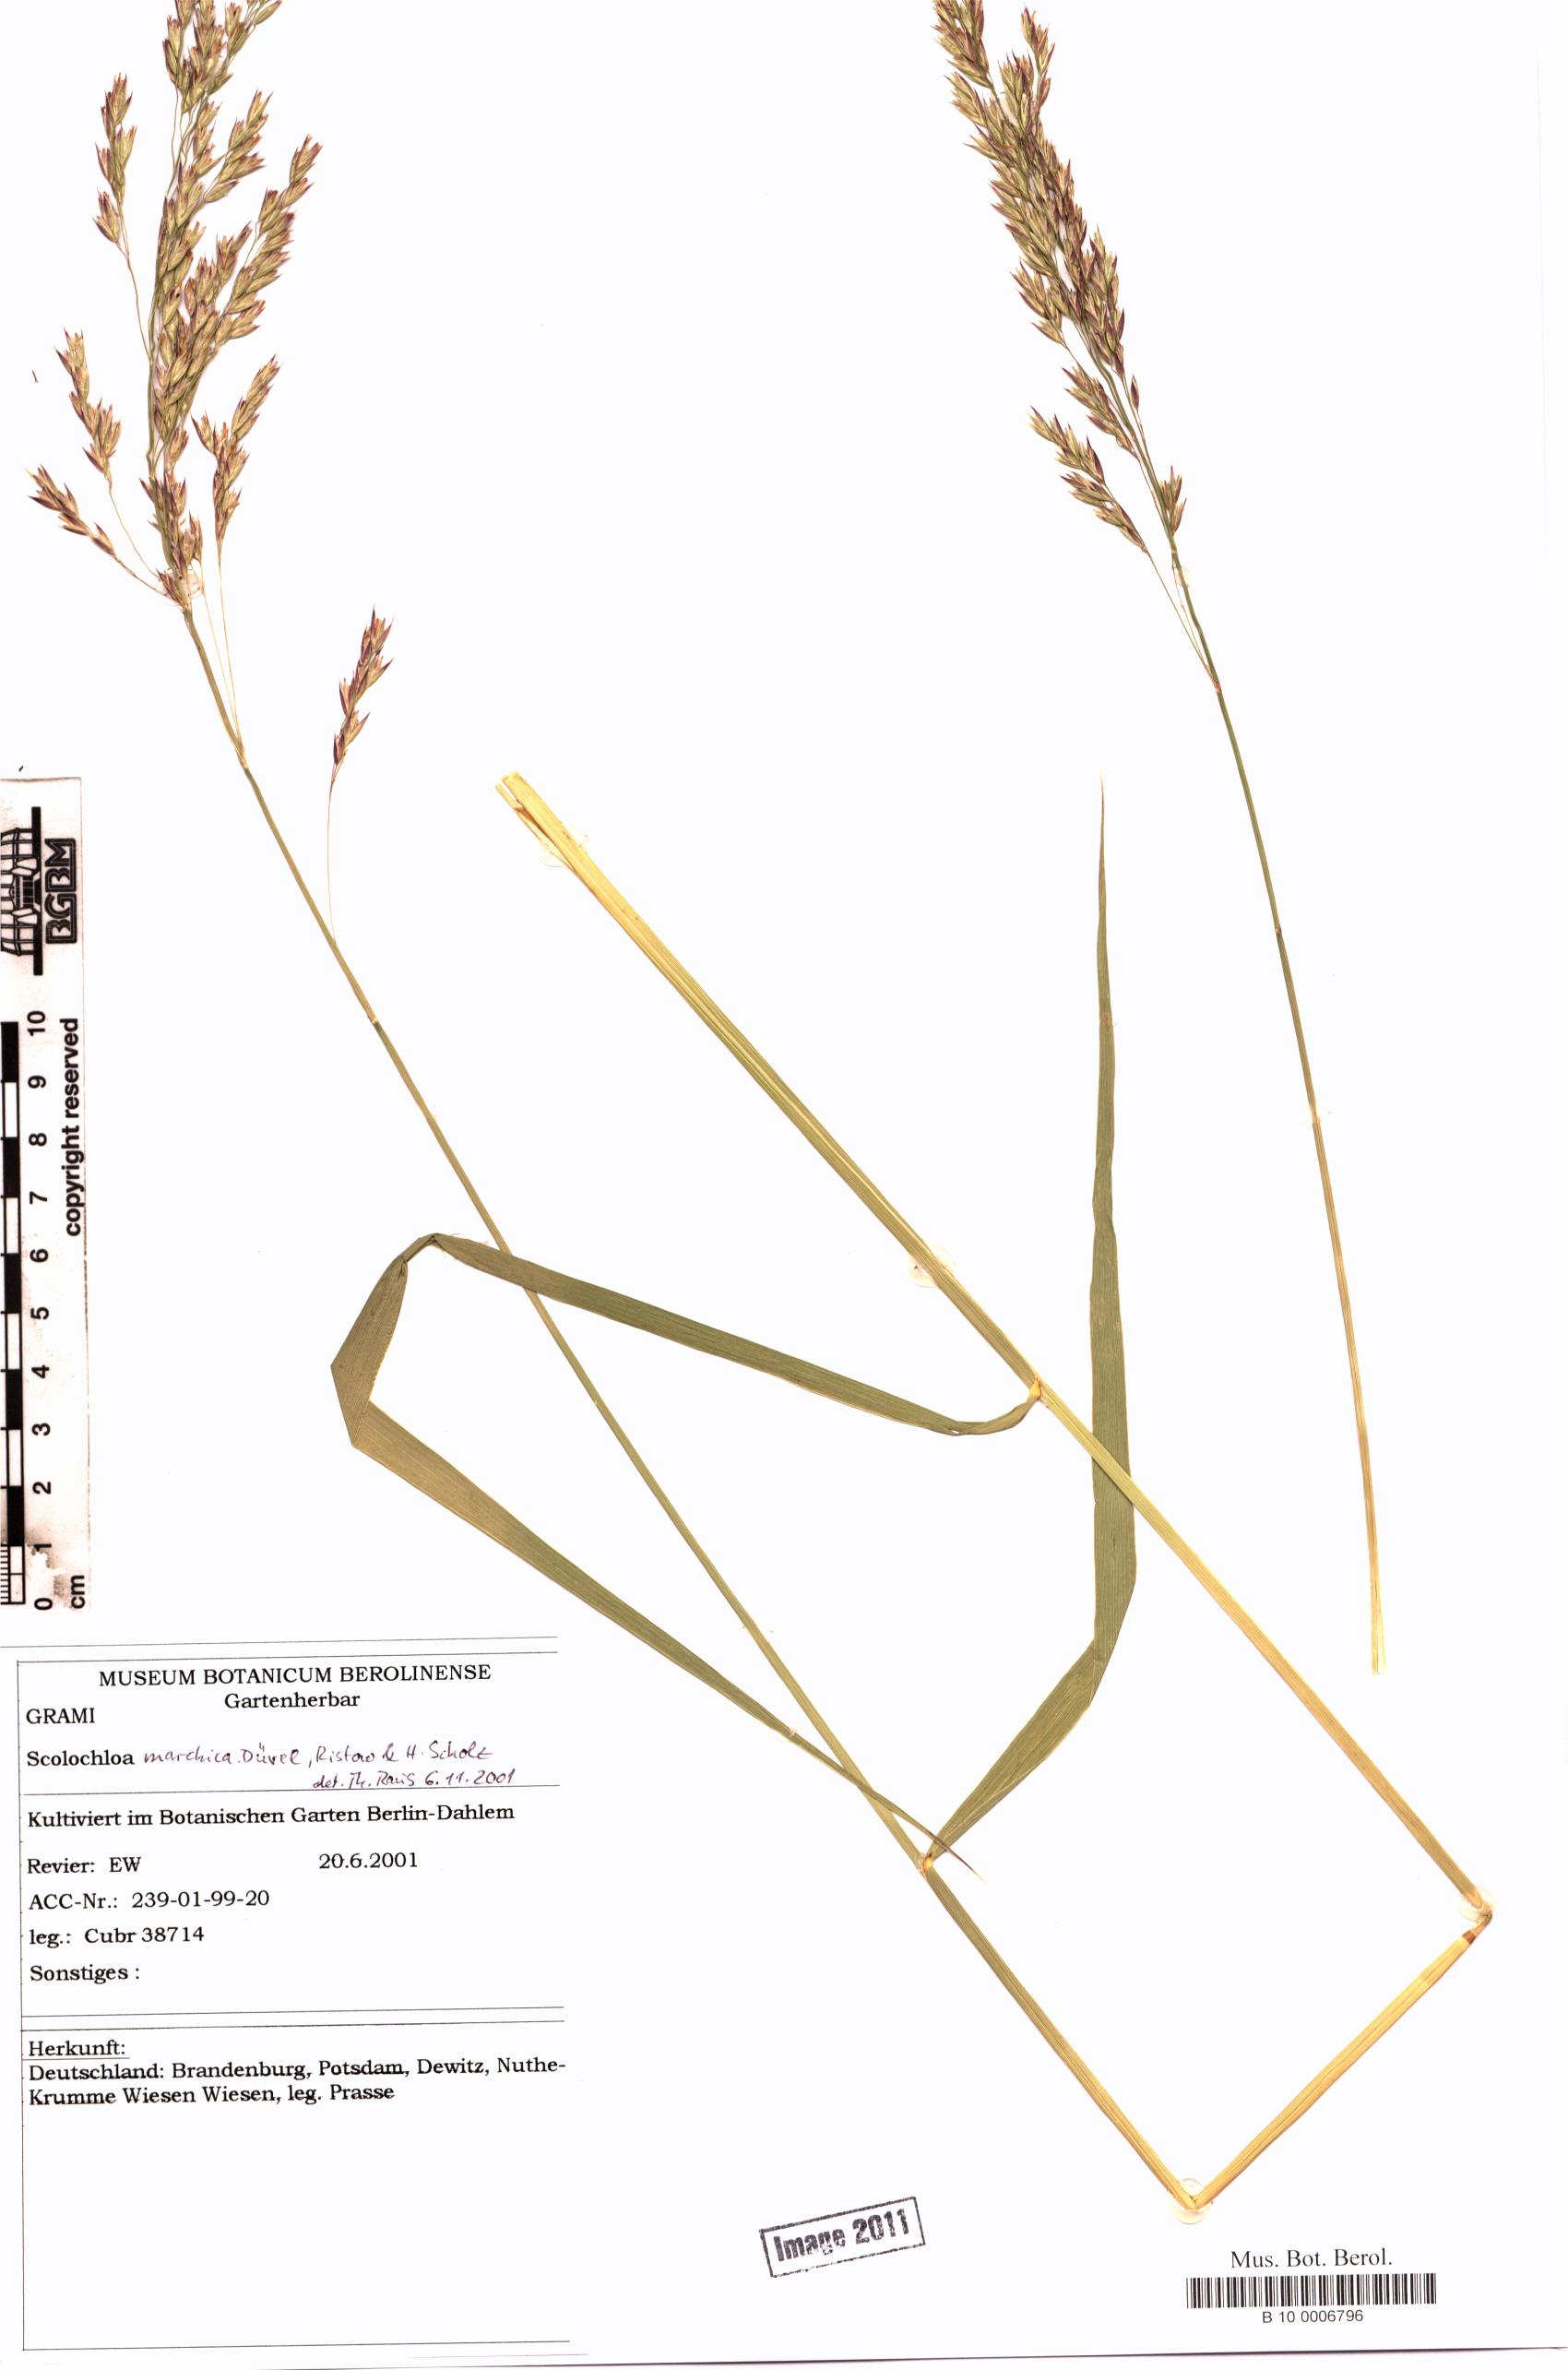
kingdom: Plantae
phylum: Tracheophyta
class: Liliopsida
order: Poales
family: Poaceae
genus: Scolochloa
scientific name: Scolochloa festucacea
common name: Common rivergrass
